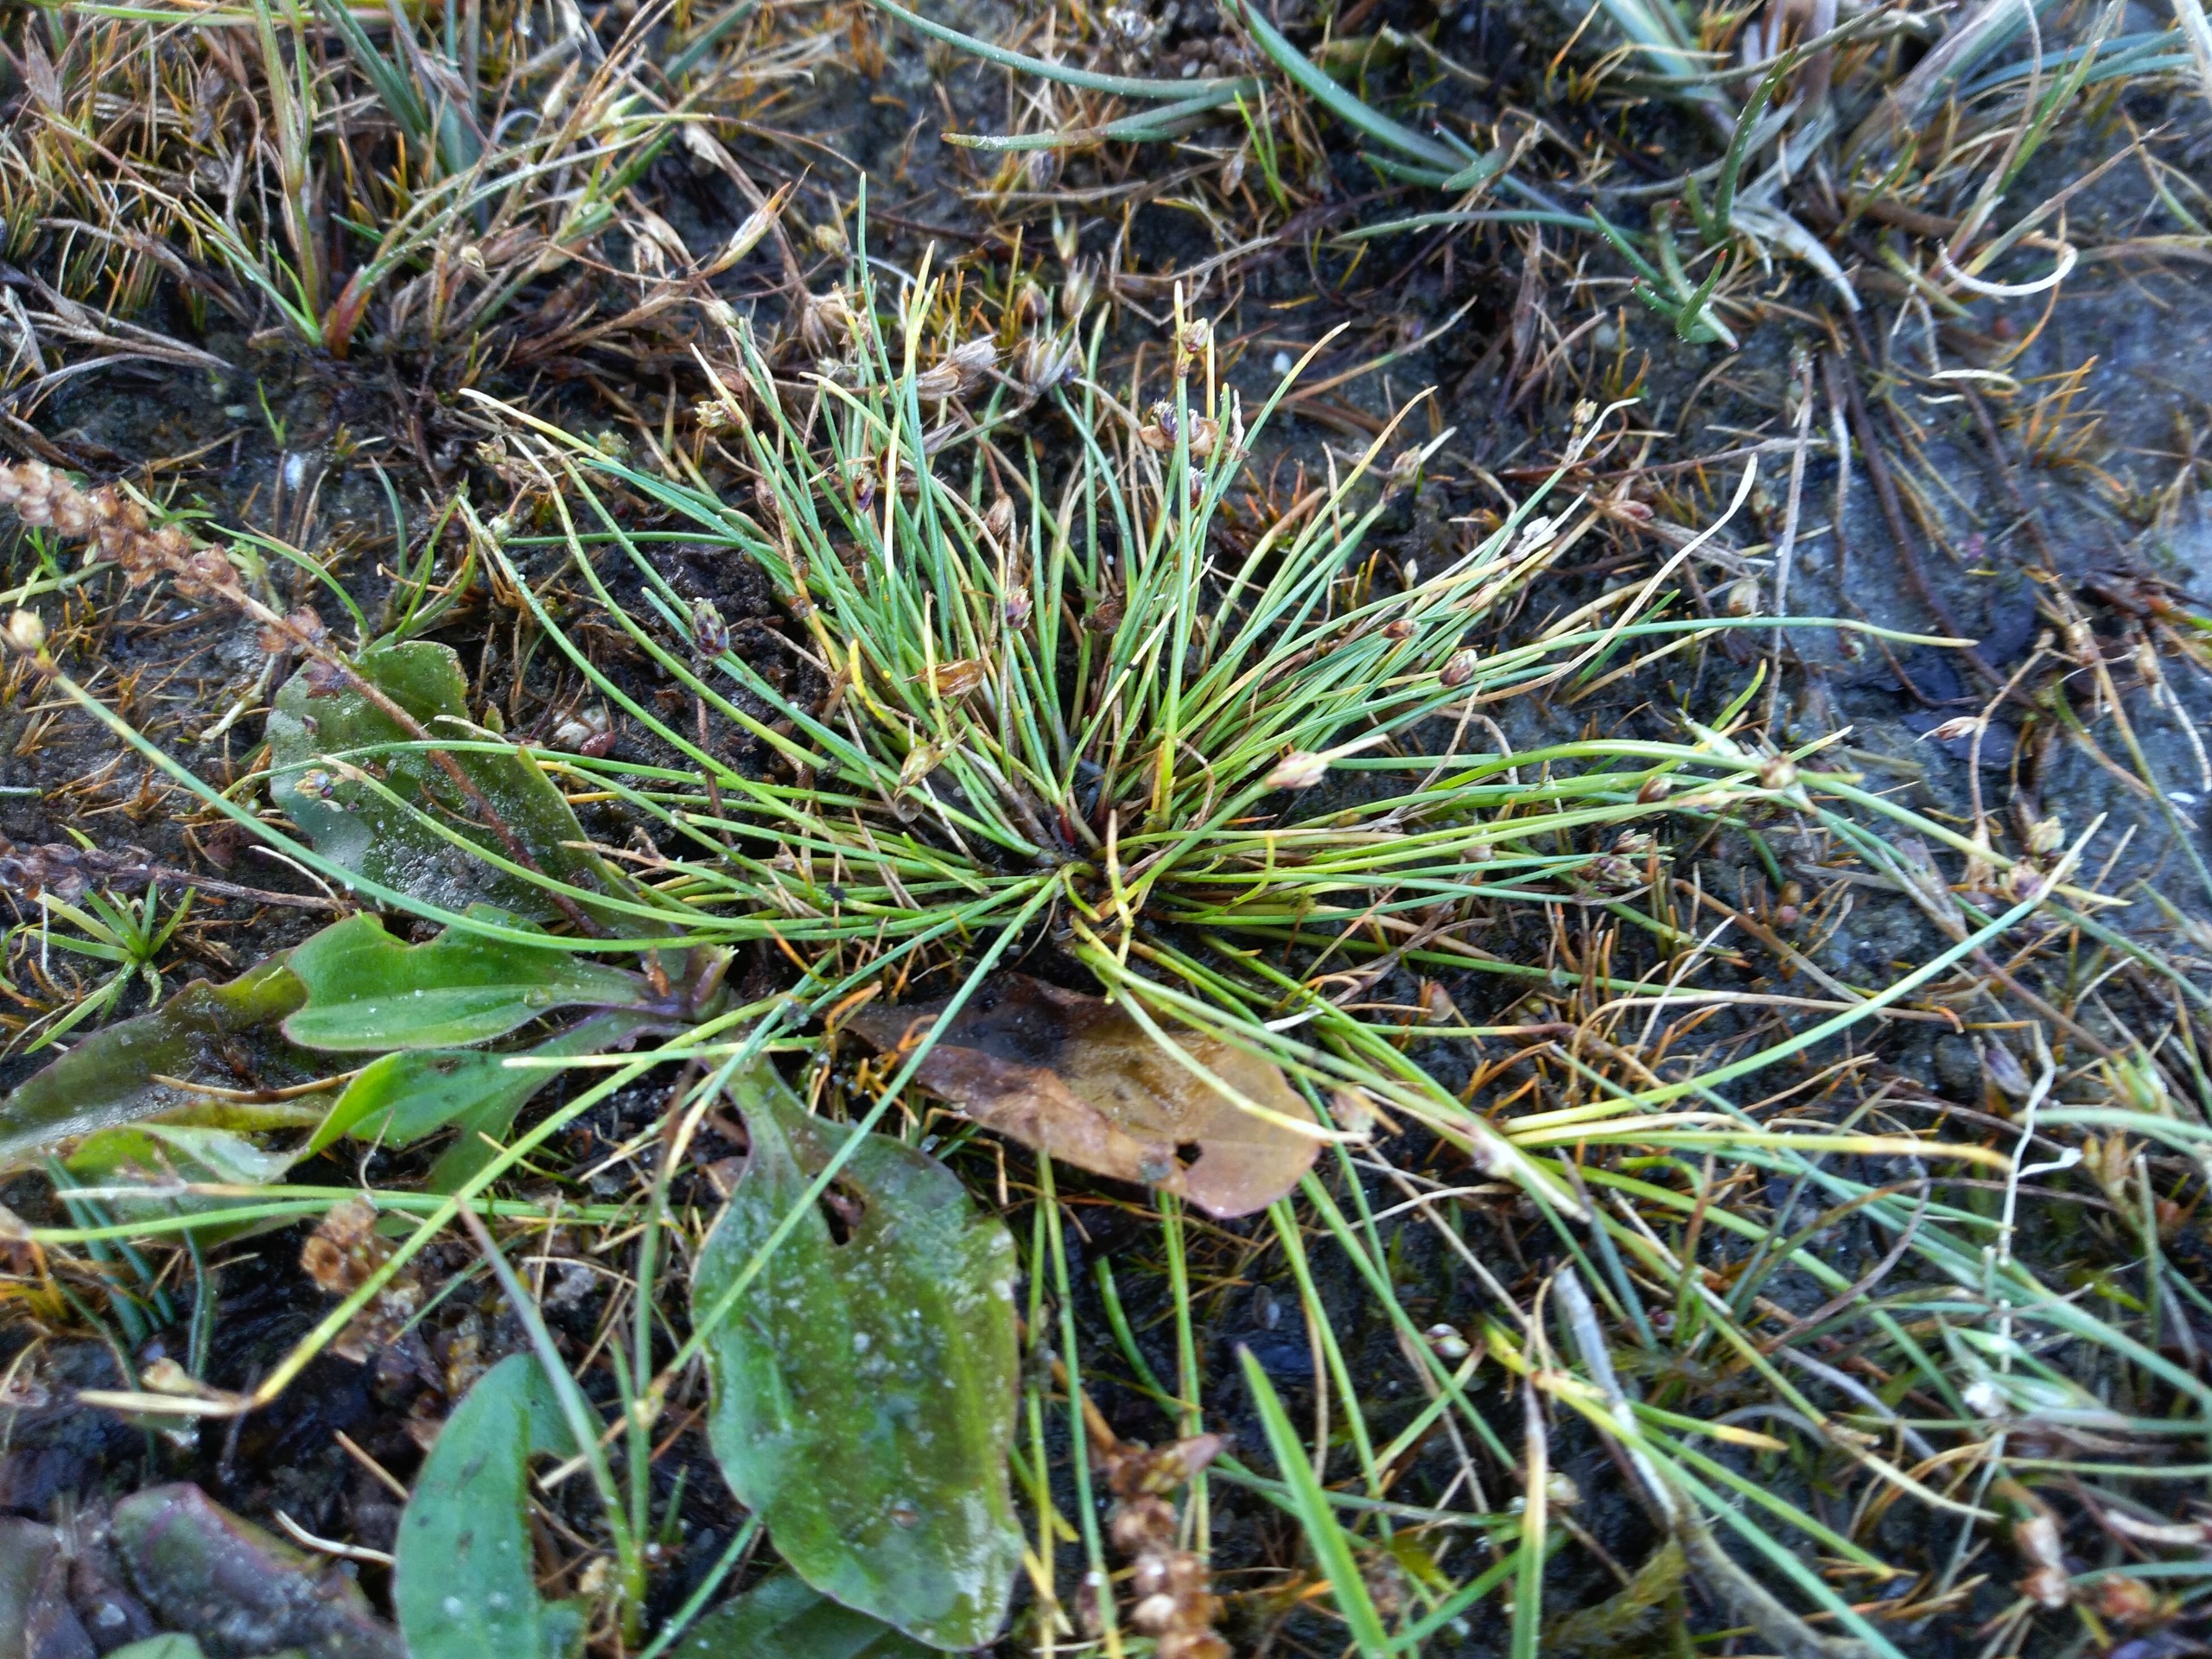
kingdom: Plantae
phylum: Tracheophyta
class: Liliopsida
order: Poales
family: Cyperaceae
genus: Isolepis
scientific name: Isolepis setacea
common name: Børste-kogleaks
